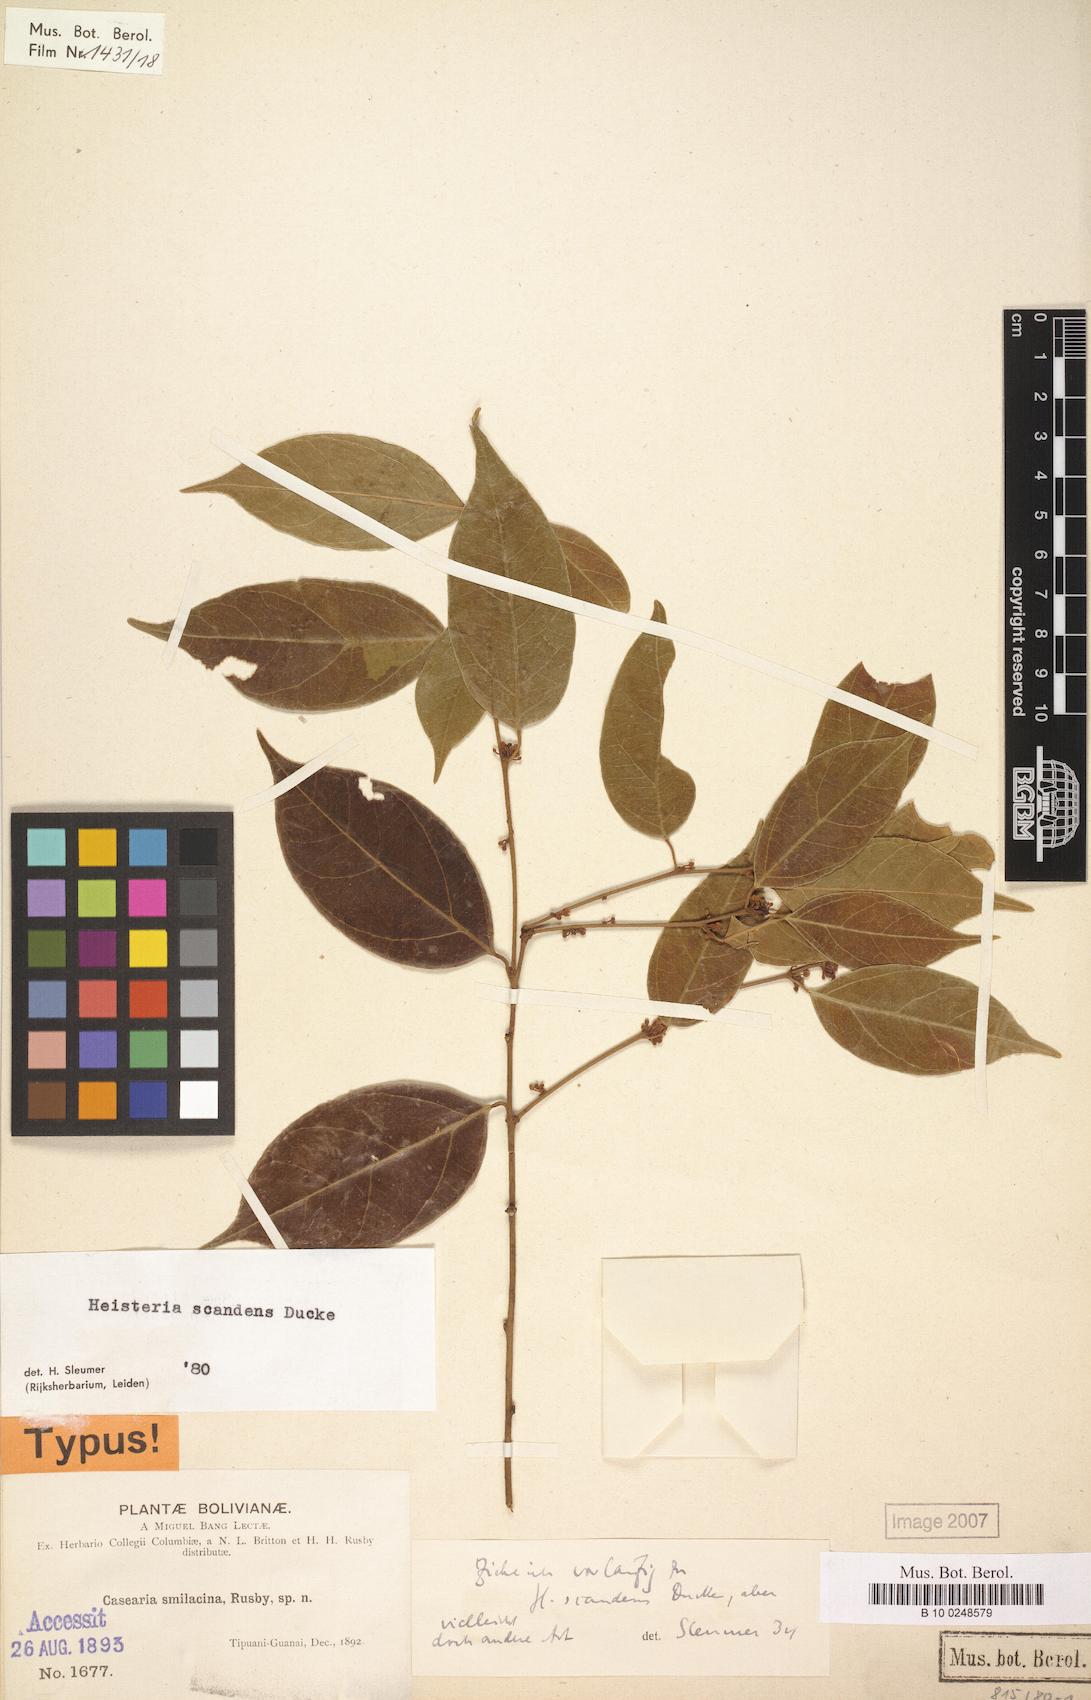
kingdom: Plantae
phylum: Tracheophyta
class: Magnoliopsida
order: Santalales
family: Erythropalaceae
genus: Heisteria
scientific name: Heisteria scandens
